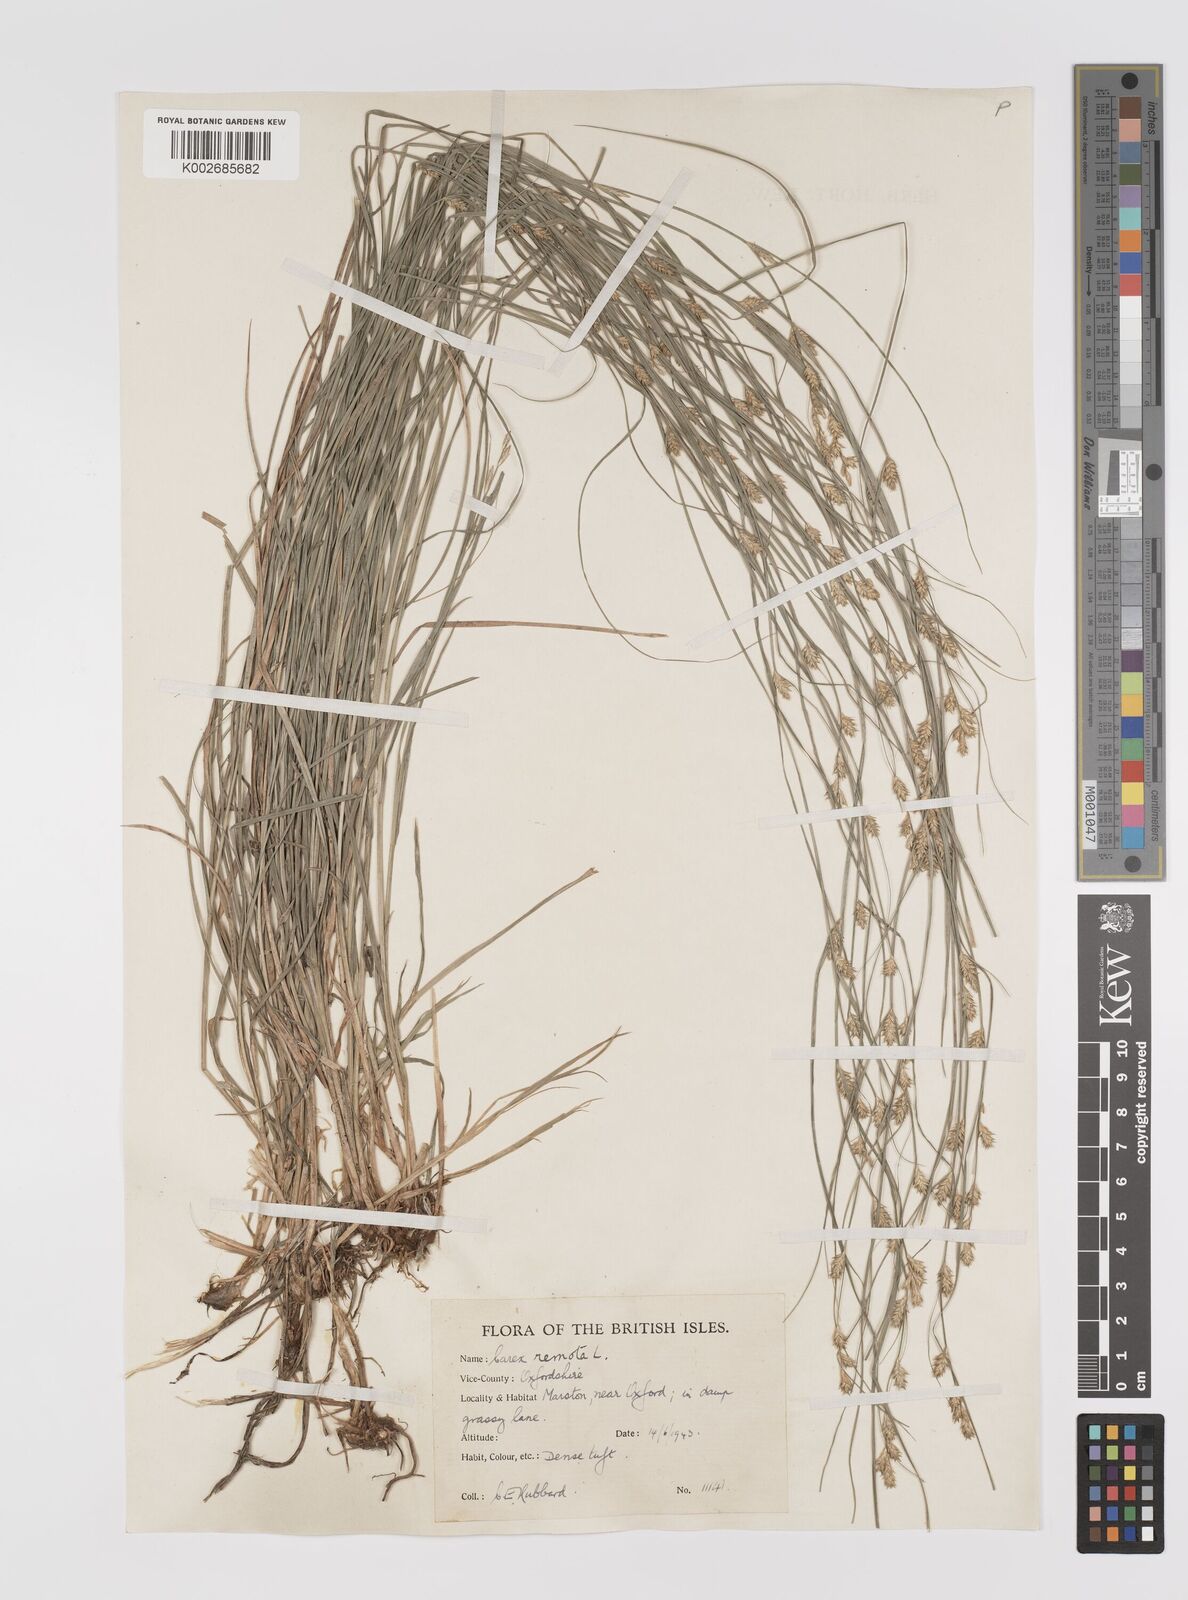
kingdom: Plantae
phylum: Tracheophyta
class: Liliopsida
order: Poales
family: Cyperaceae
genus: Carex
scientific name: Carex remota
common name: Remote sedge
